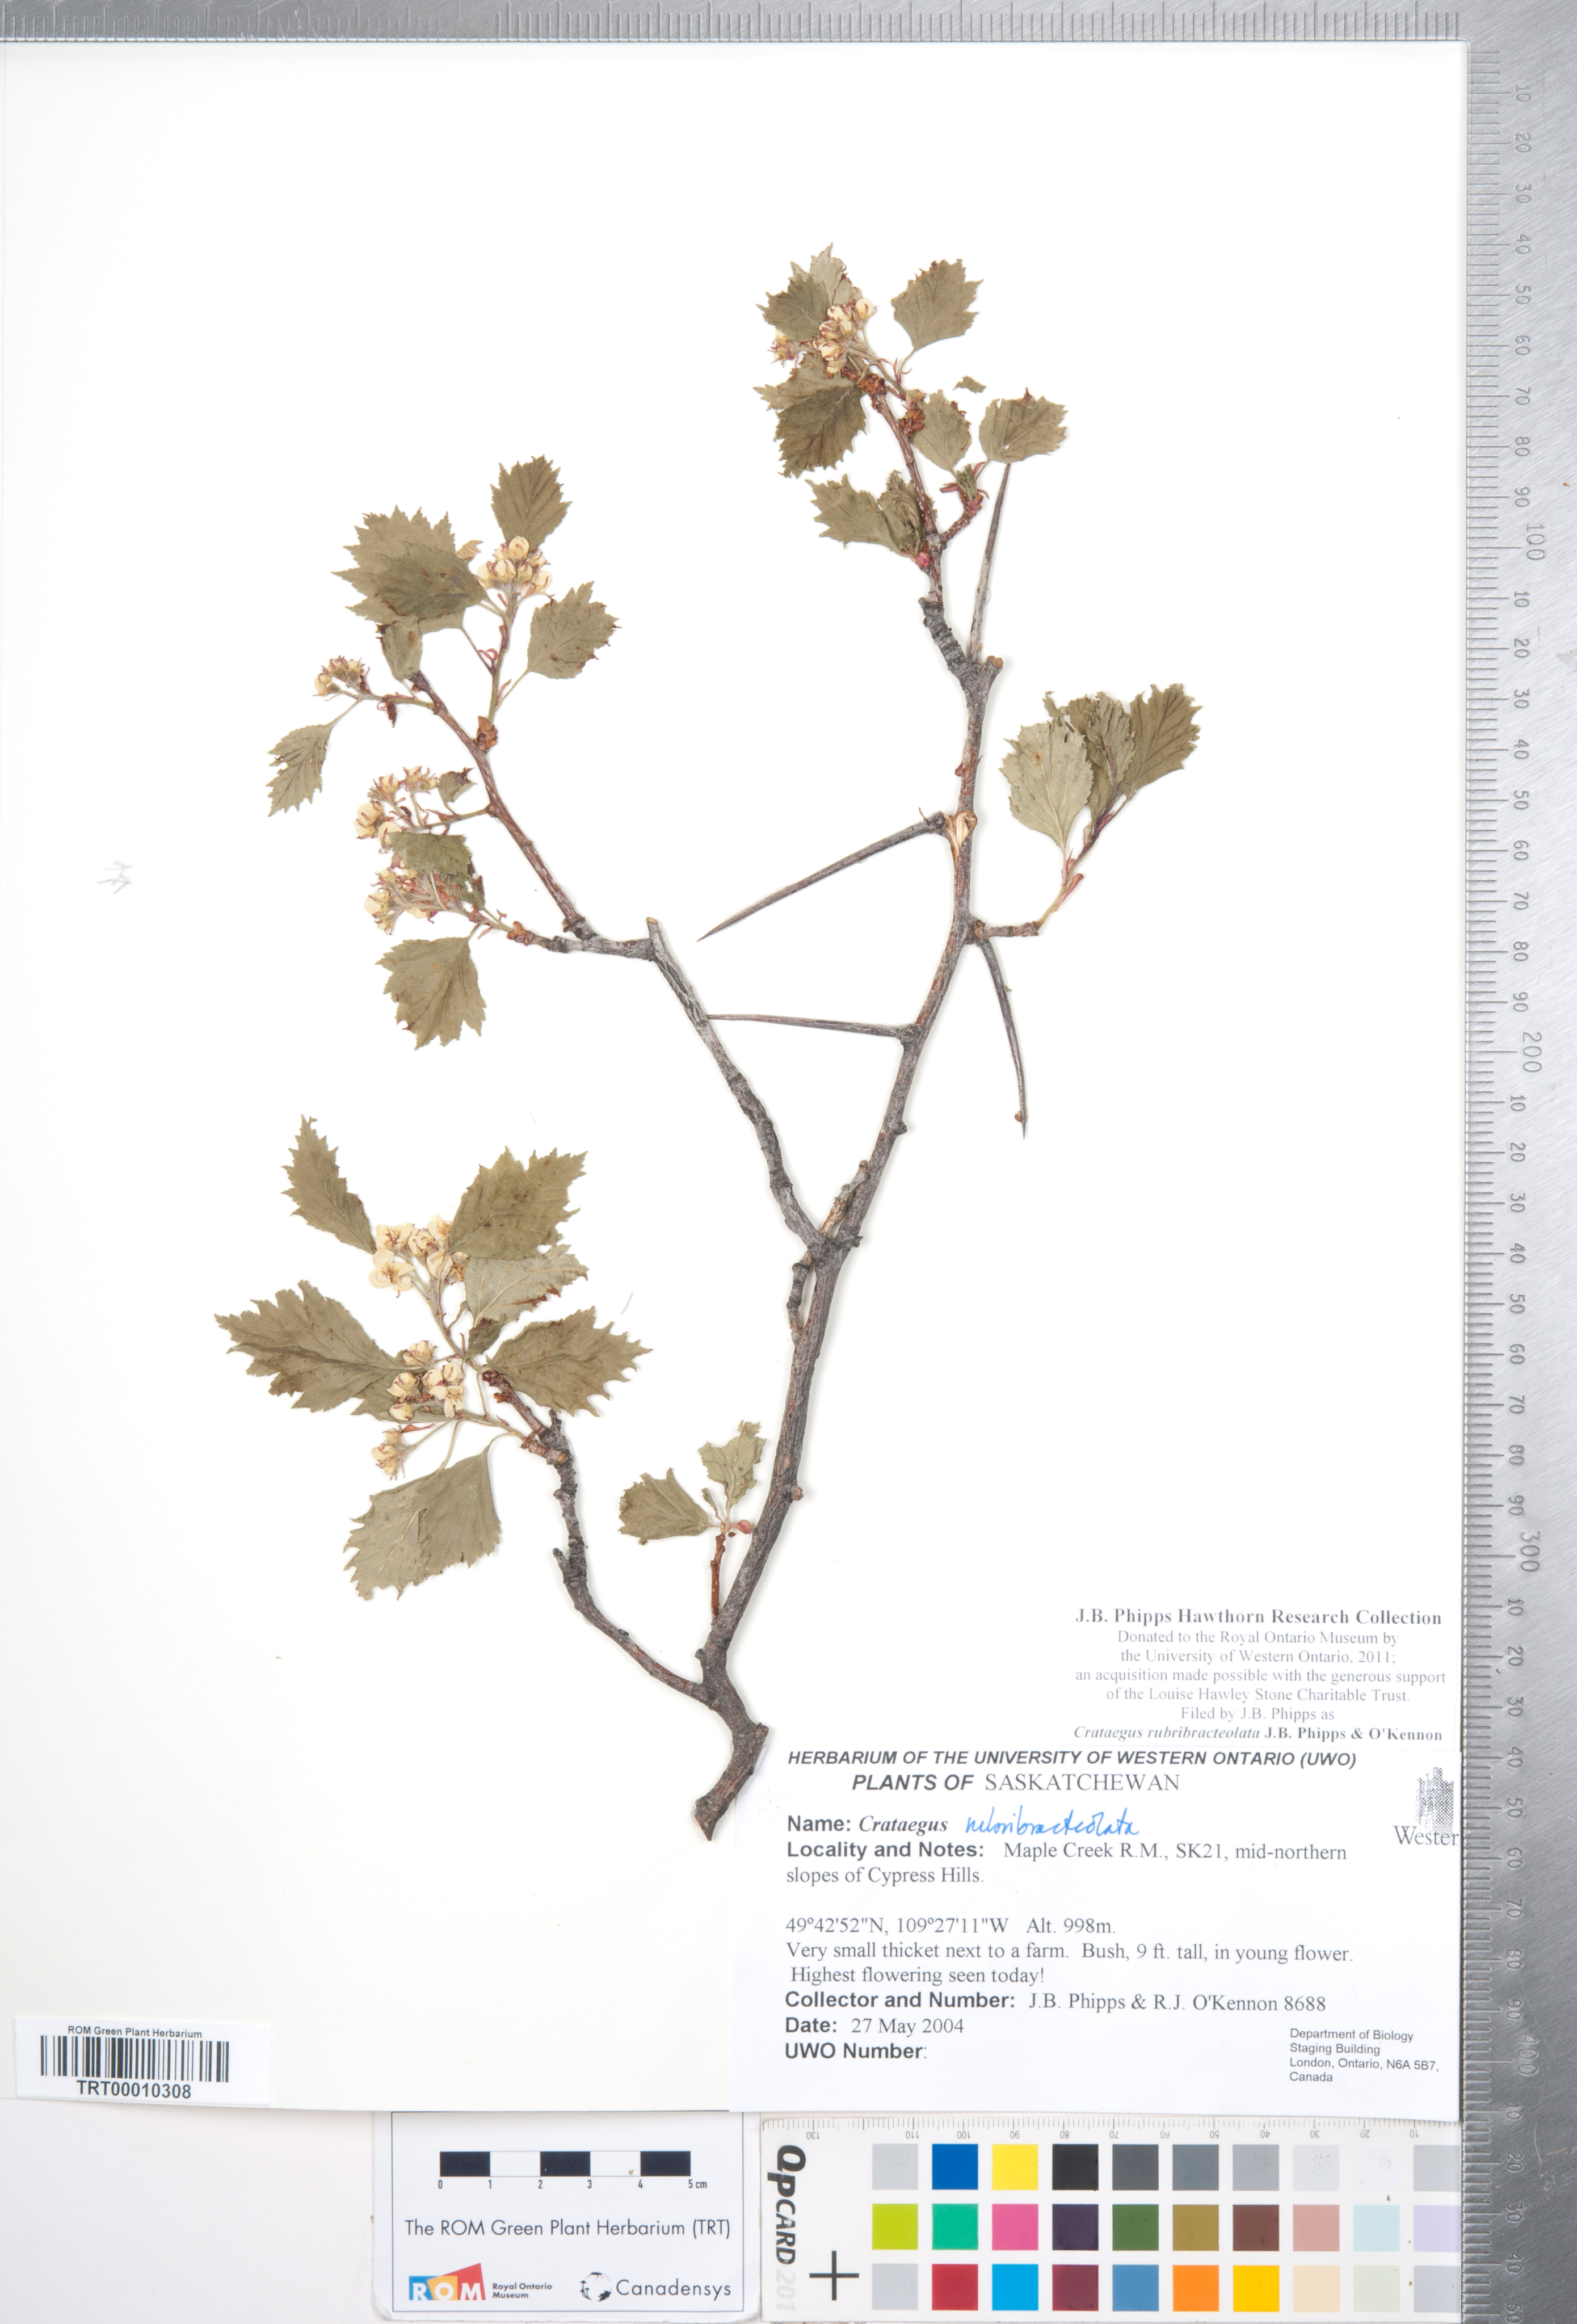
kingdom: Plantae
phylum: Tracheophyta
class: Magnoliopsida
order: Rosales
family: Rosaceae
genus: Crataegus
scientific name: Crataegus rubribracteolata
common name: Red bracteole hawthorn
